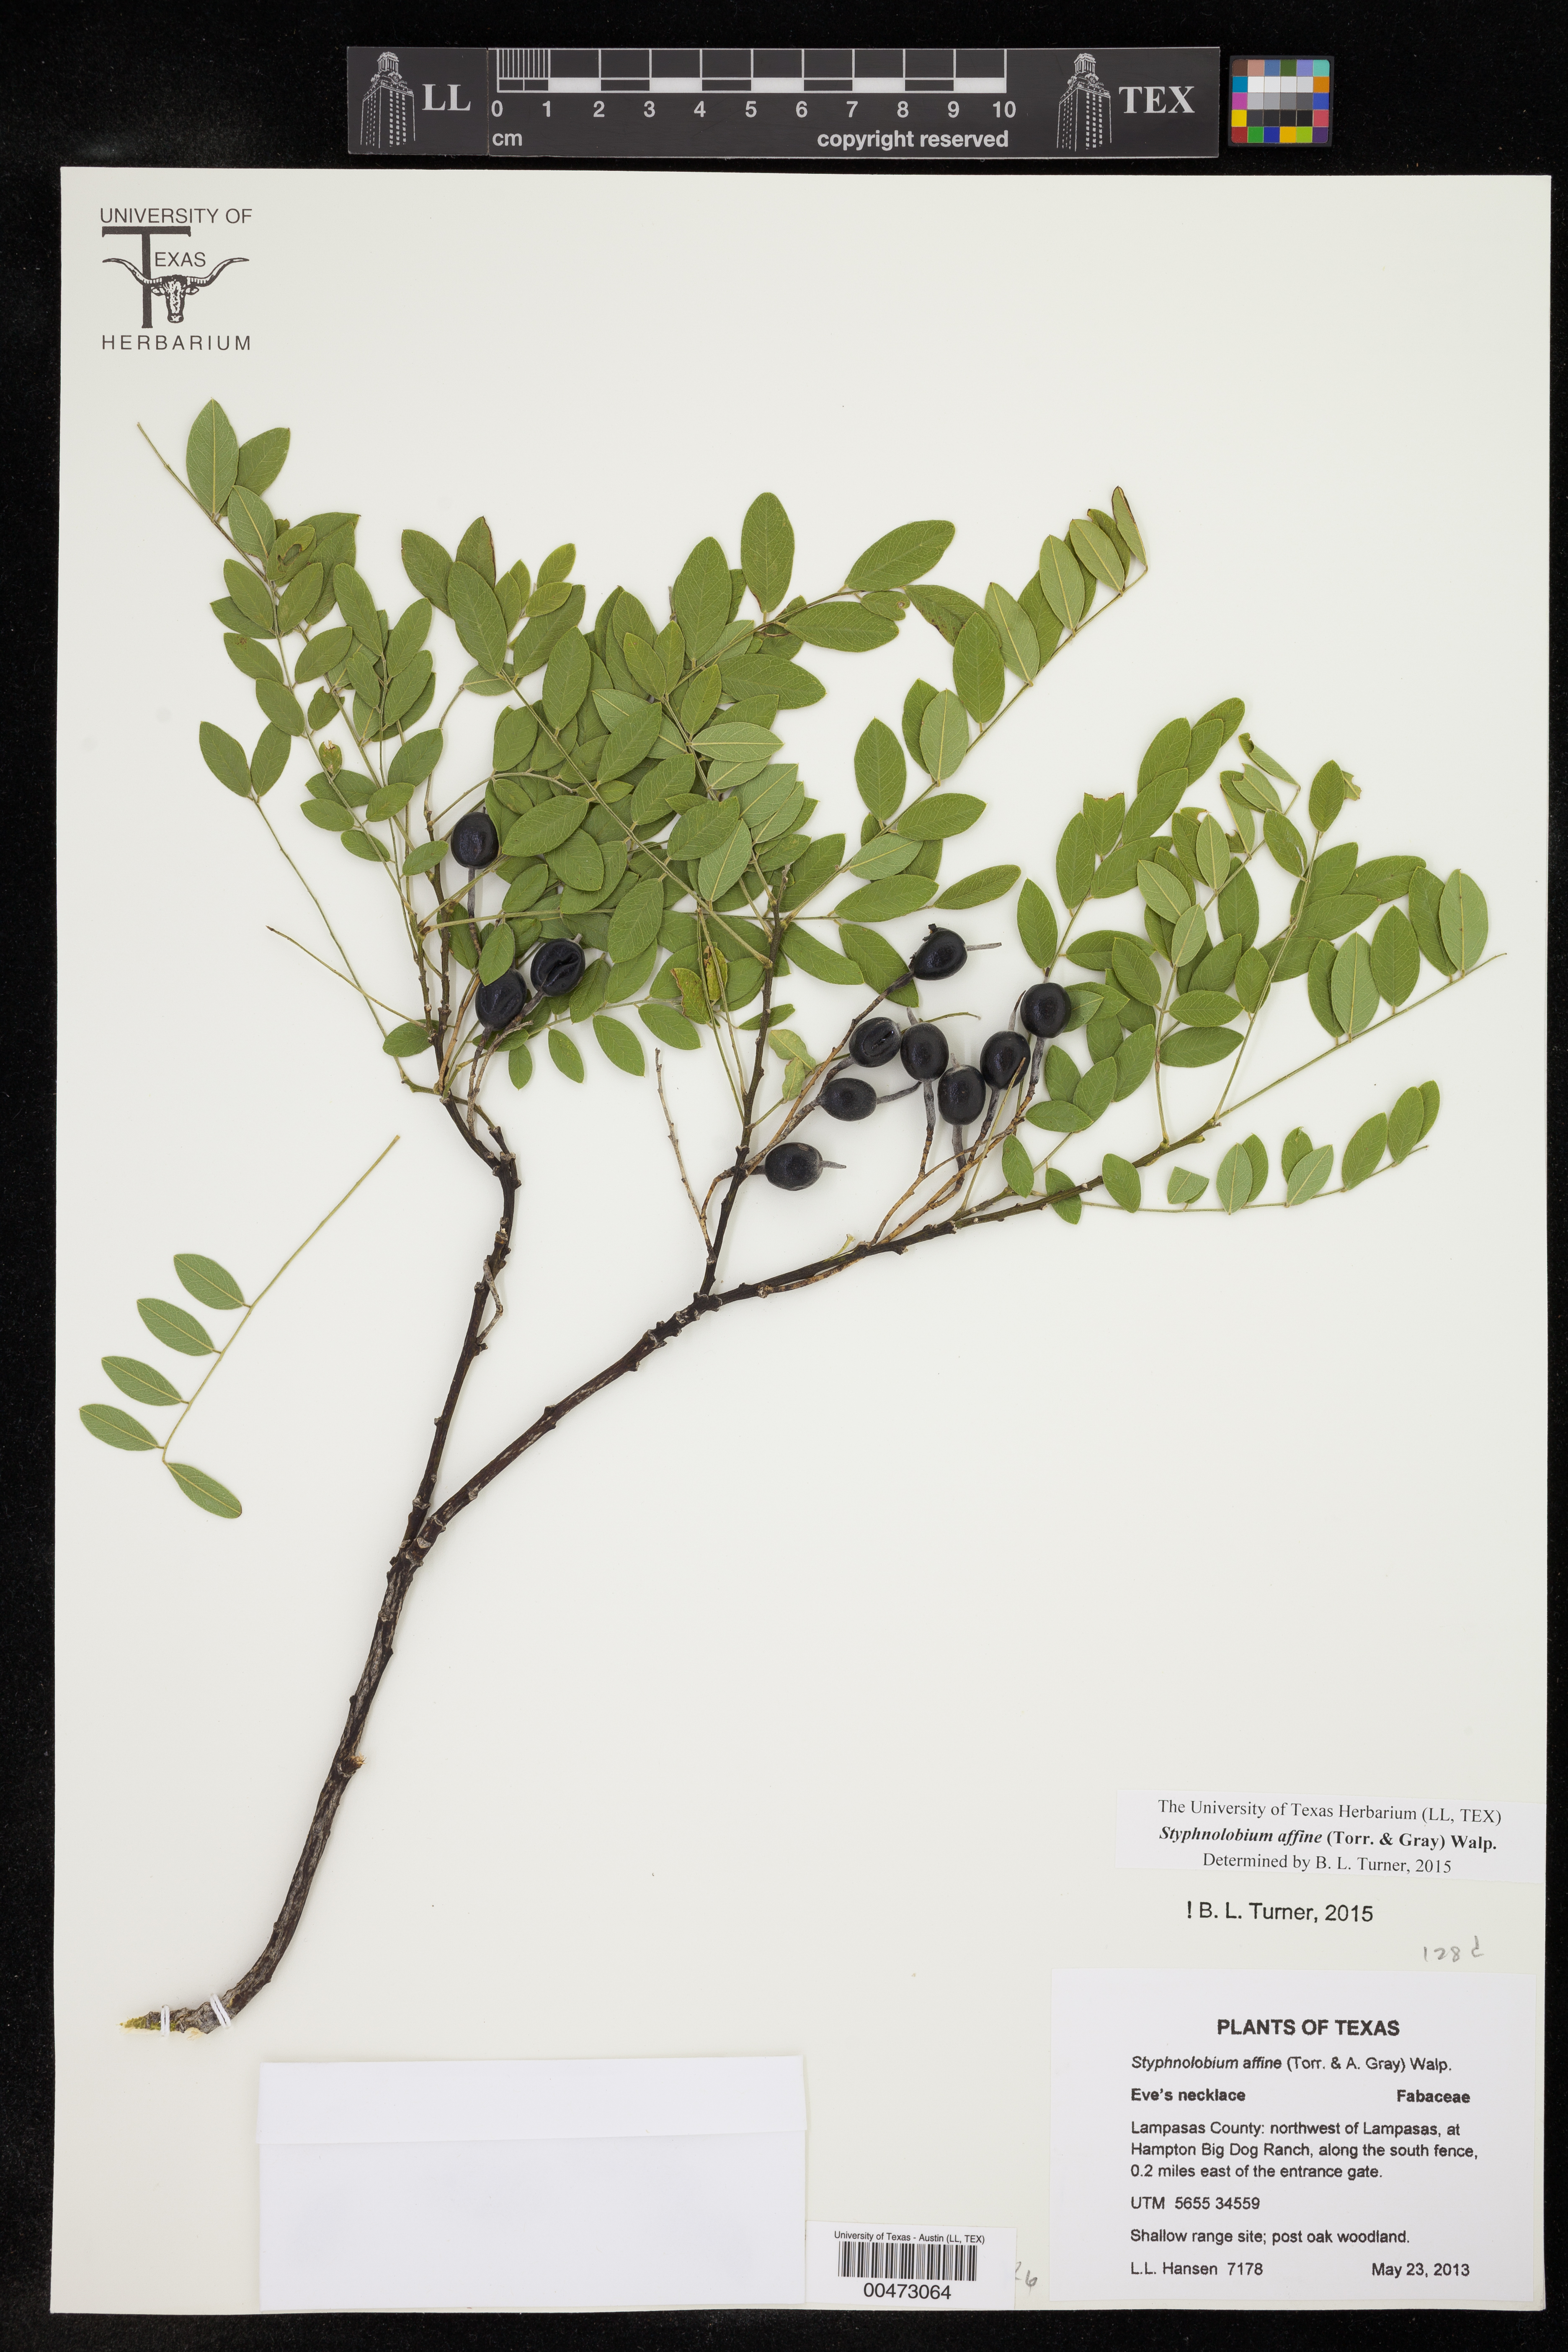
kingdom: Plantae
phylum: Tracheophyta
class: Magnoliopsida
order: Fabales
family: Fabaceae
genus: Styphnolobium
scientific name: Styphnolobium affine
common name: Texas sophora
